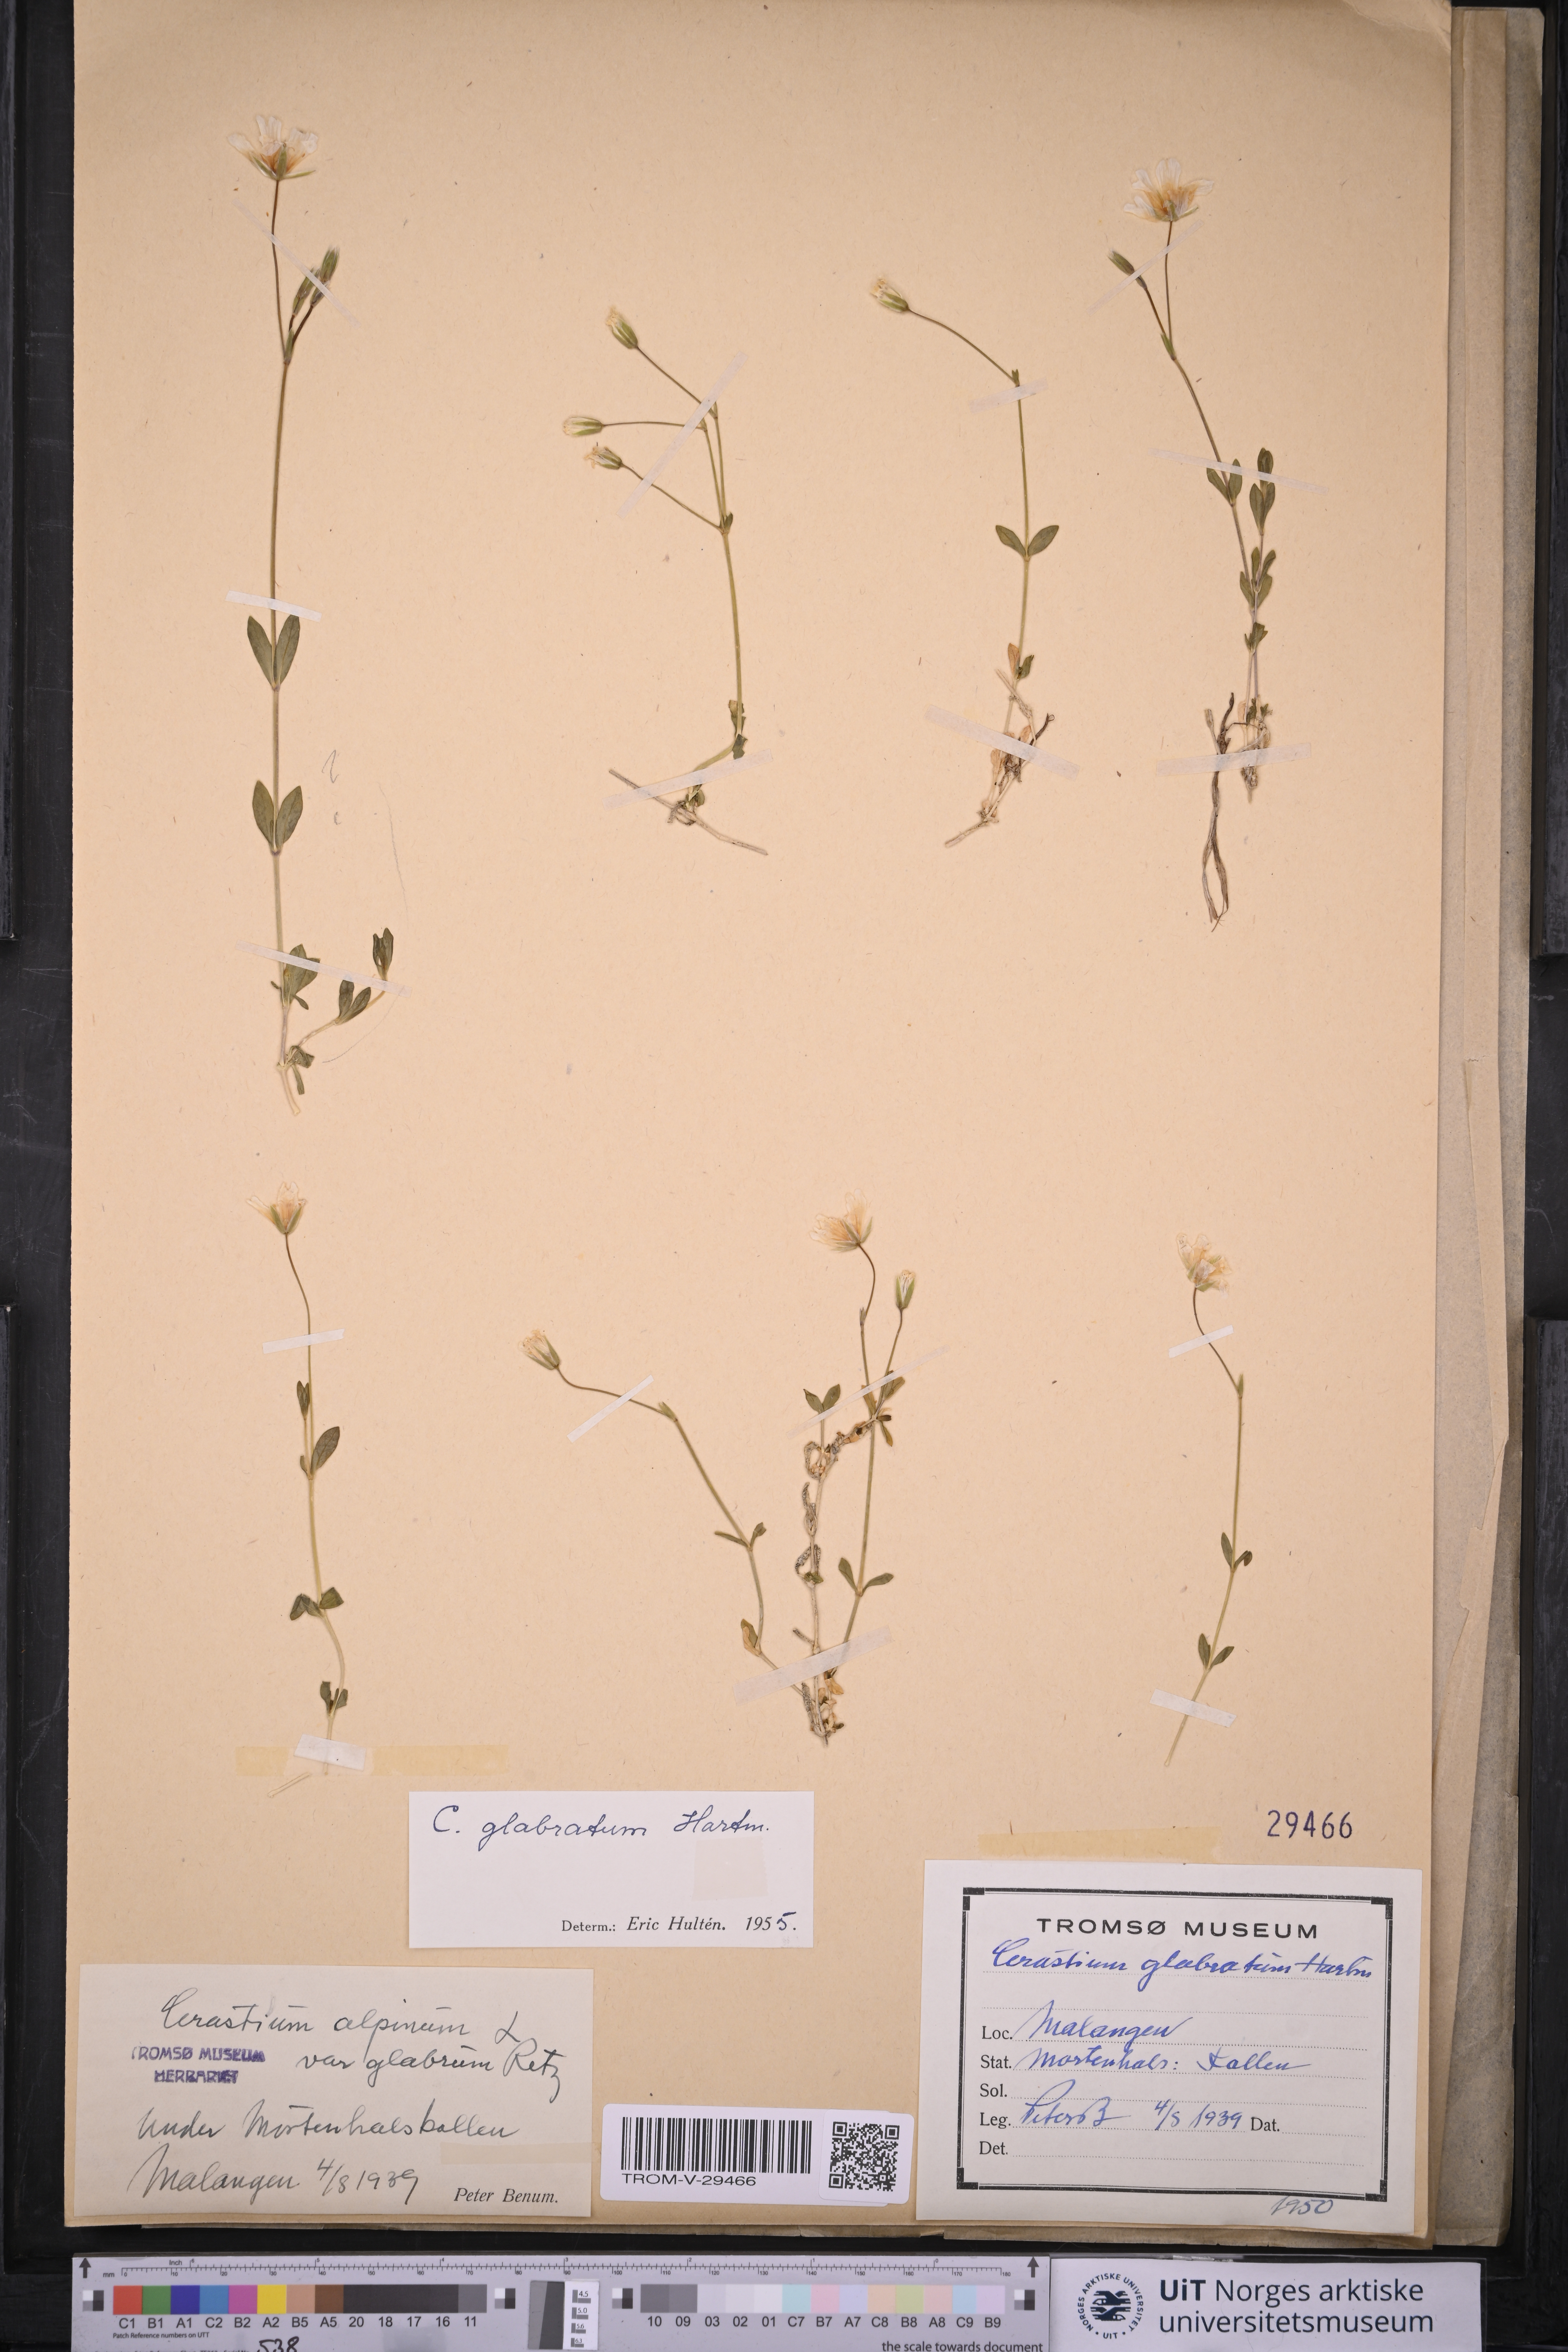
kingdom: Plantae
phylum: Tracheophyta
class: Magnoliopsida
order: Caryophyllales
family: Caryophyllaceae
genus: Cerastium
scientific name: Cerastium alpinum
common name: Alpine mouse-ear
